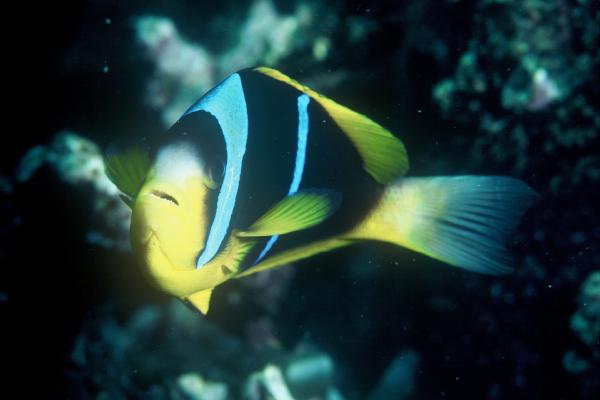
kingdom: Animalia
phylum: Chordata
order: Perciformes
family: Pomacentridae
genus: Amphiprion
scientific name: Amphiprion akallopisos
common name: Skunk clownfish
